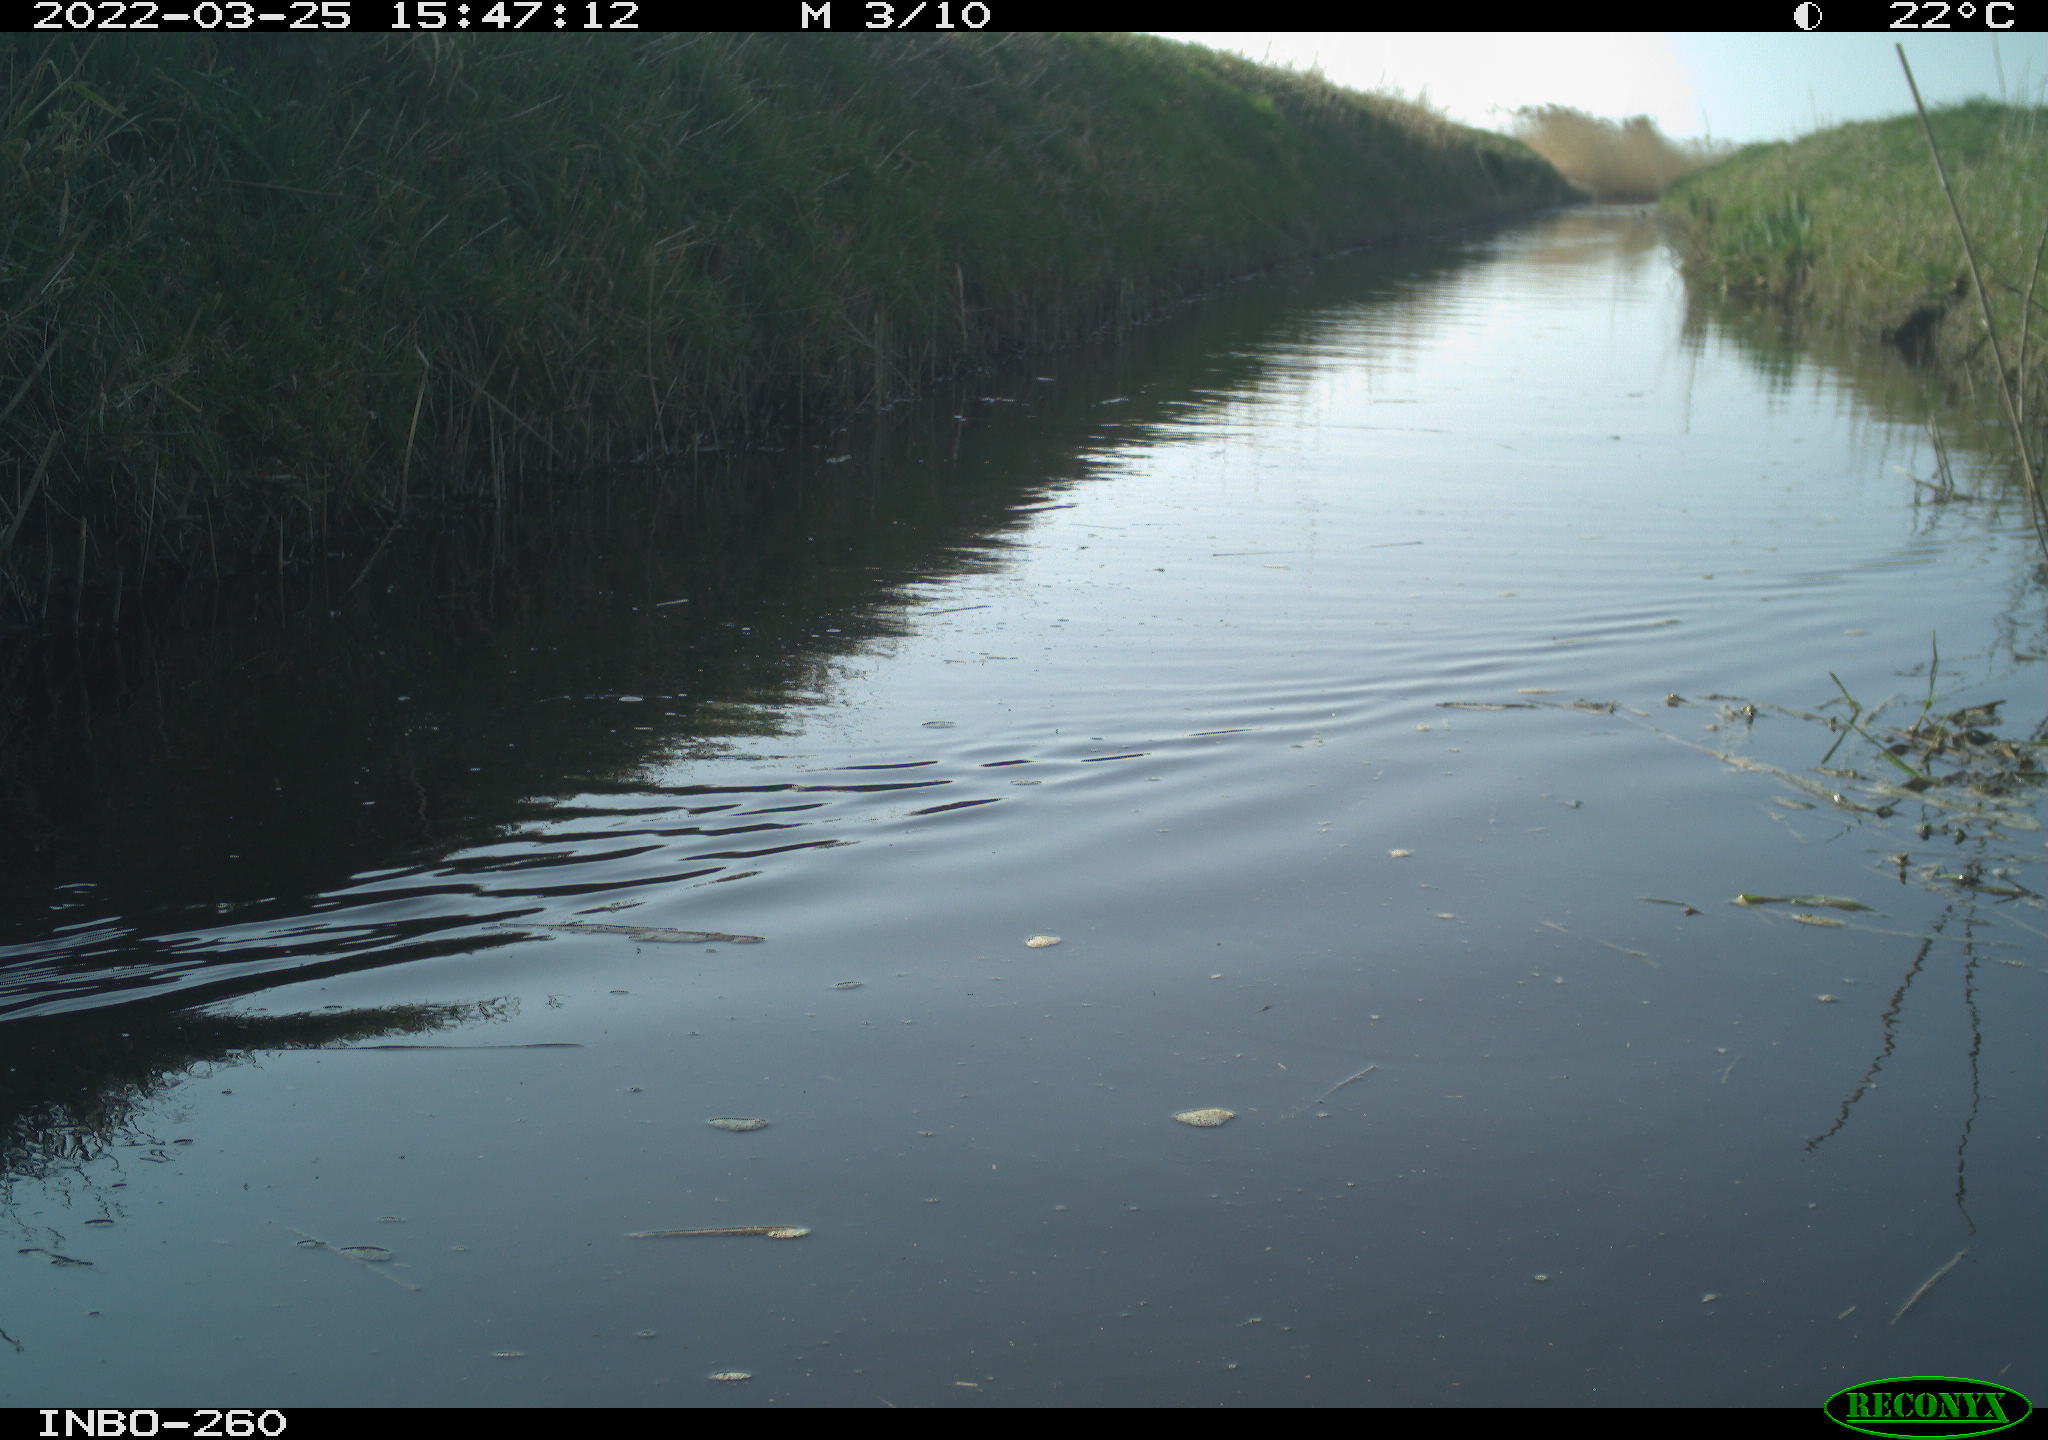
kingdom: Animalia
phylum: Chordata
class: Aves
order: Gruiformes
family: Rallidae
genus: Fulica
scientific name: Fulica atra
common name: Eurasian coot
